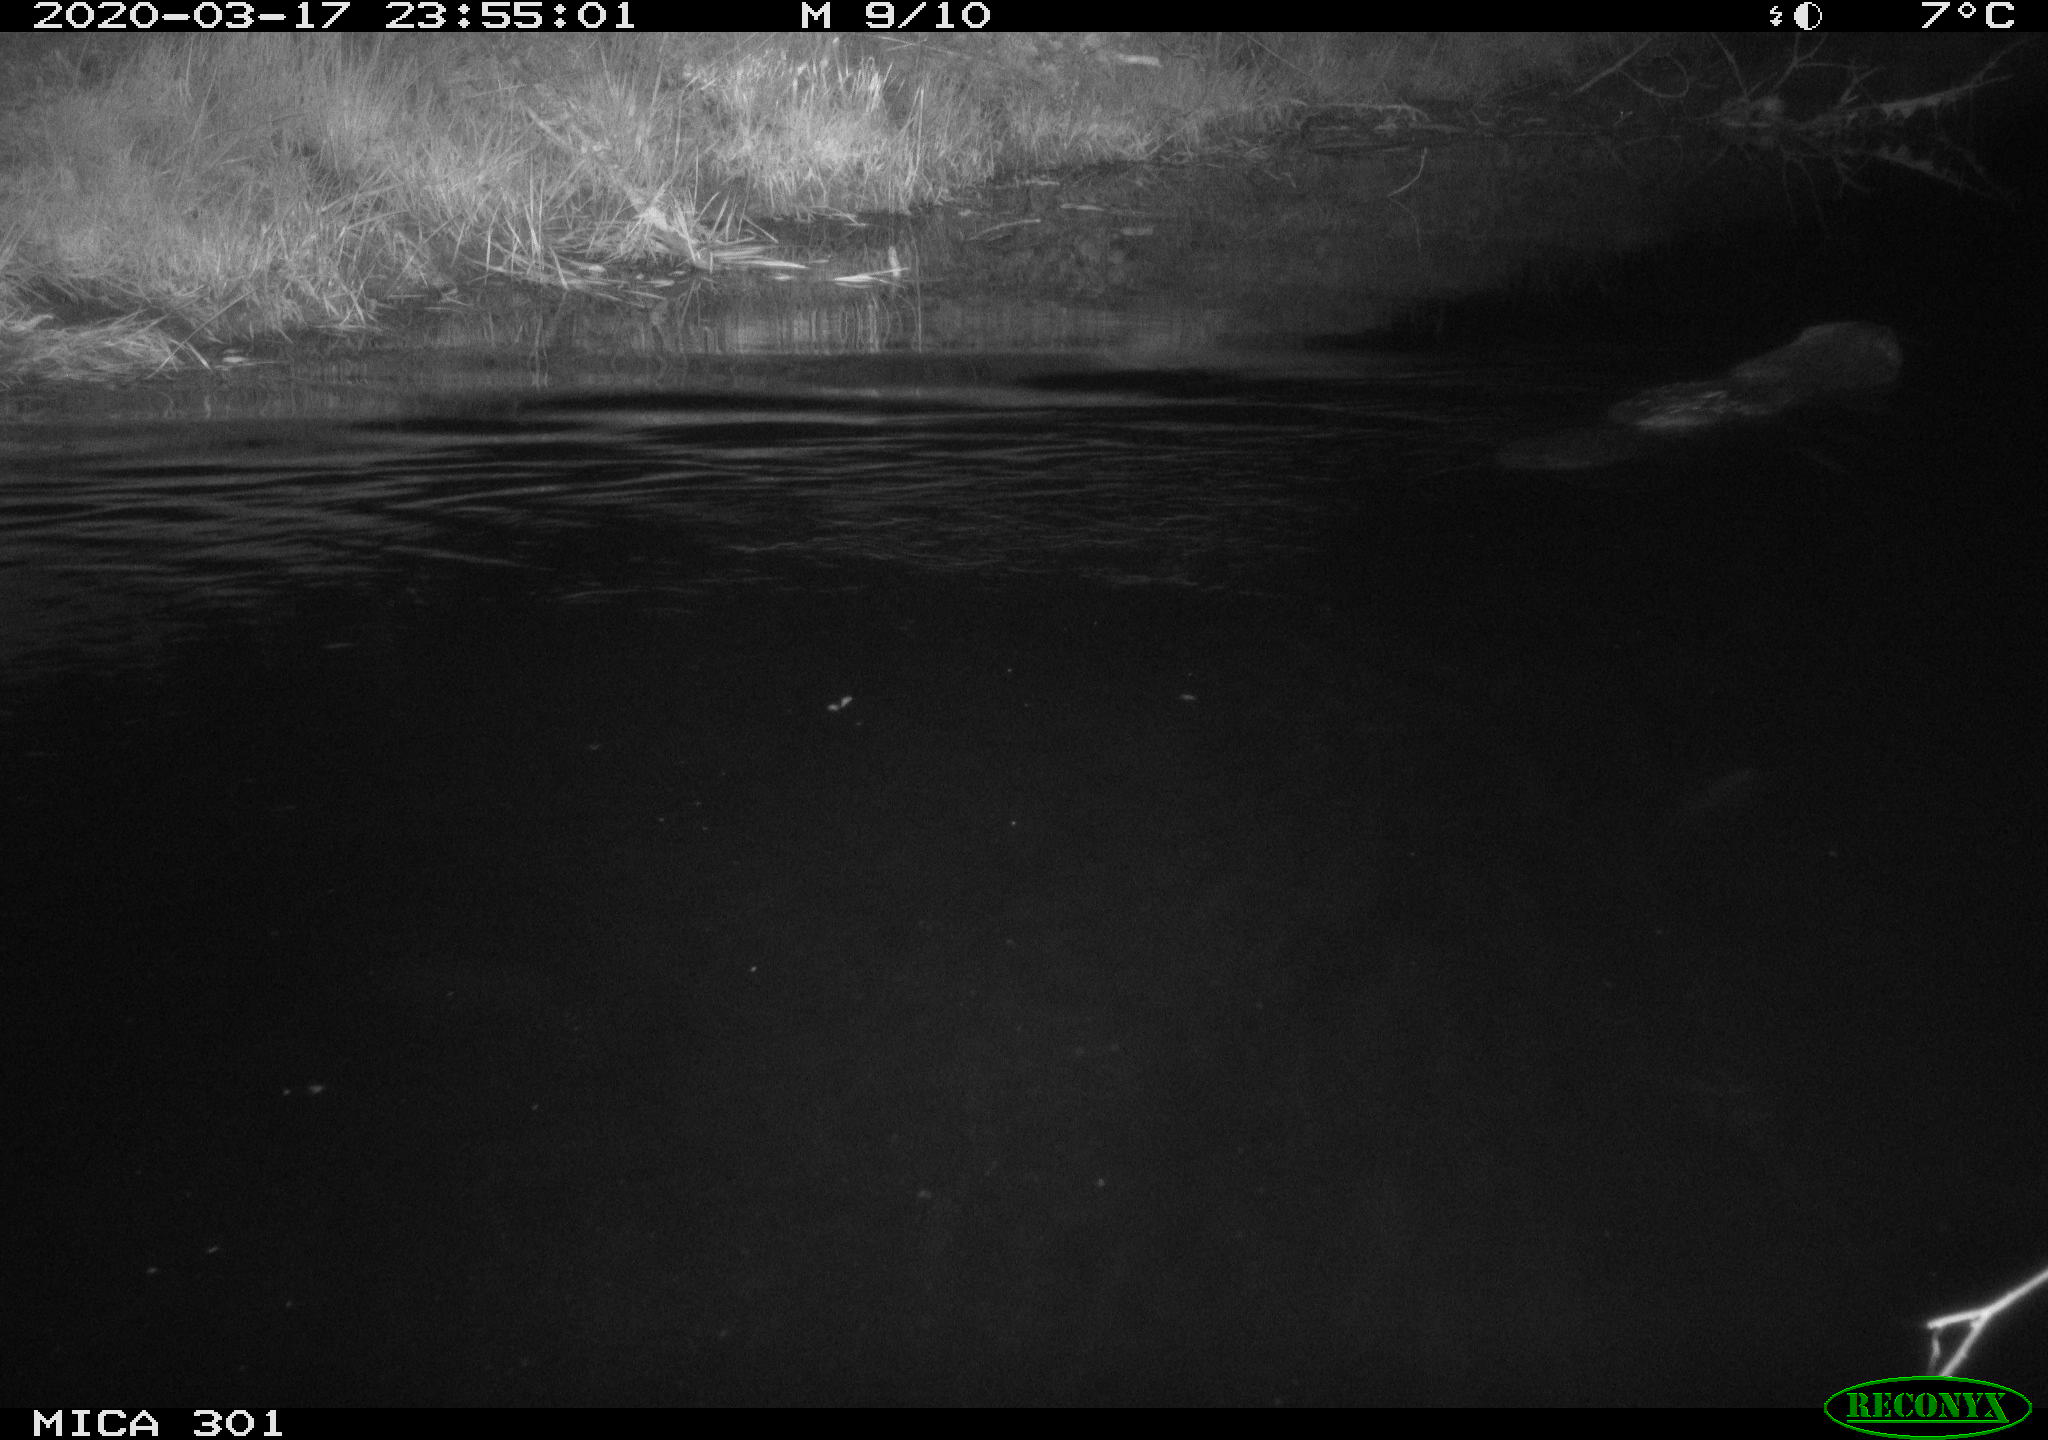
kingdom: Animalia
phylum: Chordata
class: Mammalia
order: Rodentia
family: Castoridae
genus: Castor
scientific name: Castor fiber
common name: Eurasian beaver
